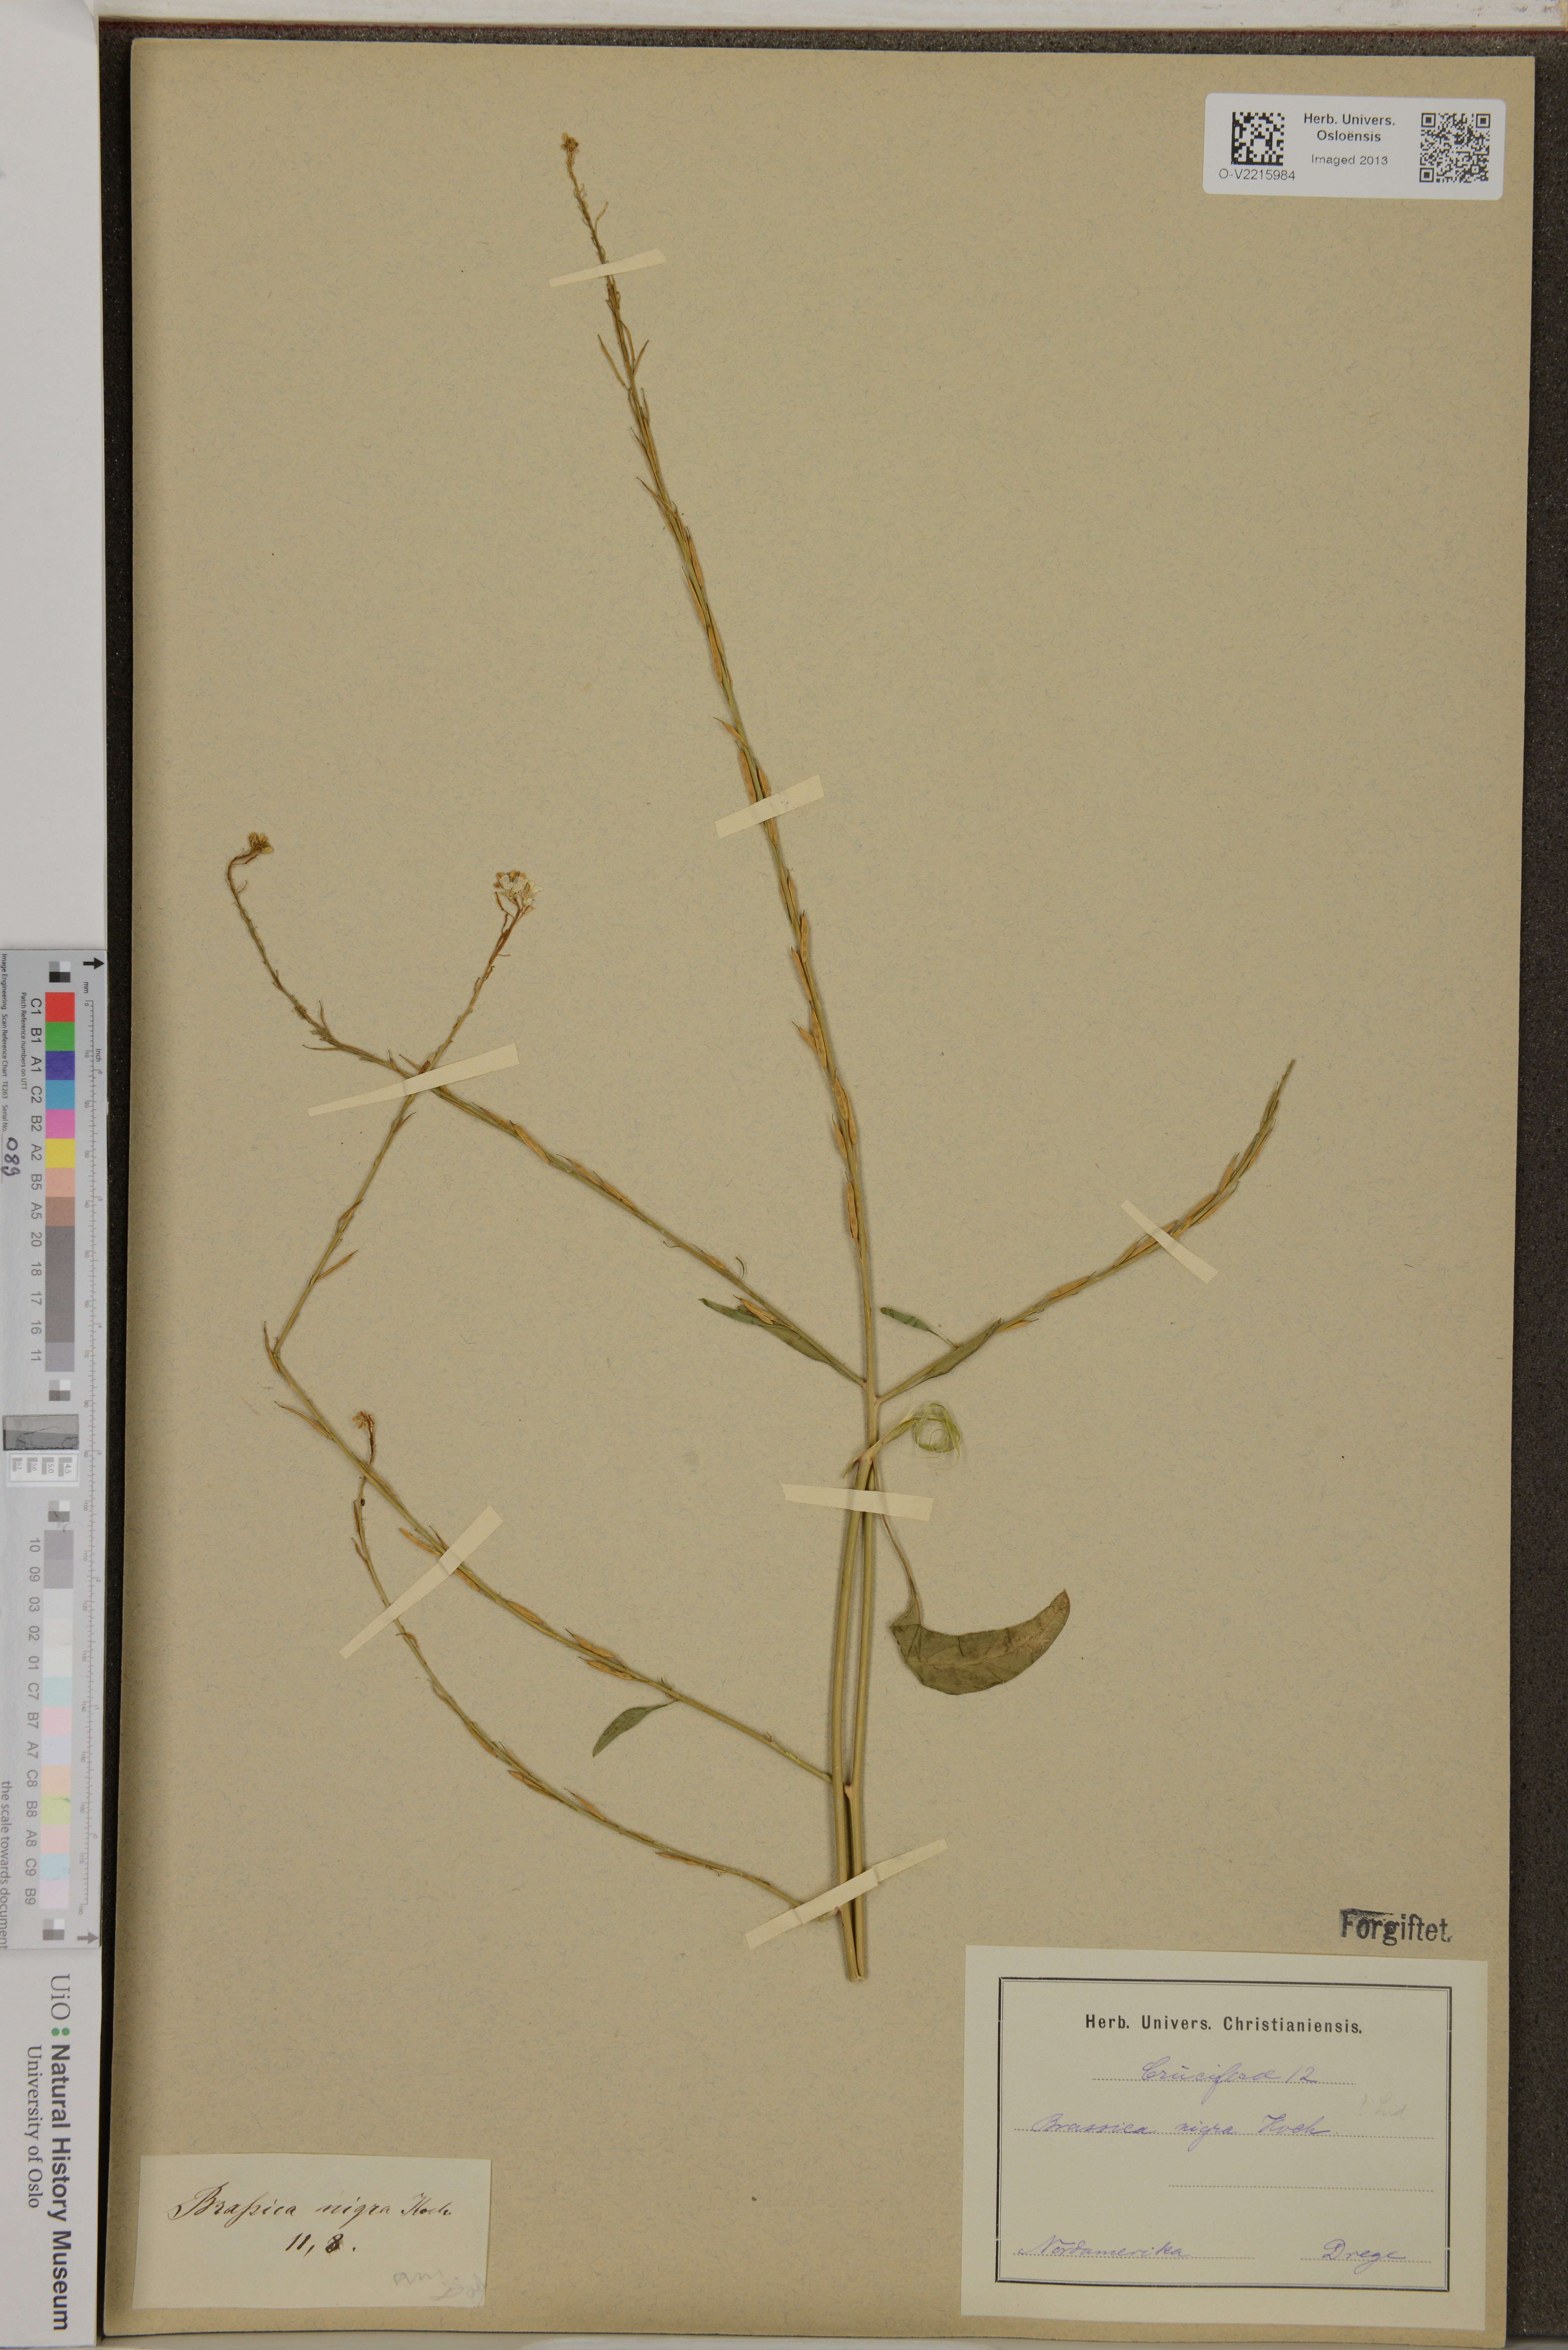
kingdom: Plantae
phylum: Tracheophyta
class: Magnoliopsida
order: Brassicales
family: Brassicaceae
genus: Brassica
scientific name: Brassica nigra
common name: Black mustard
